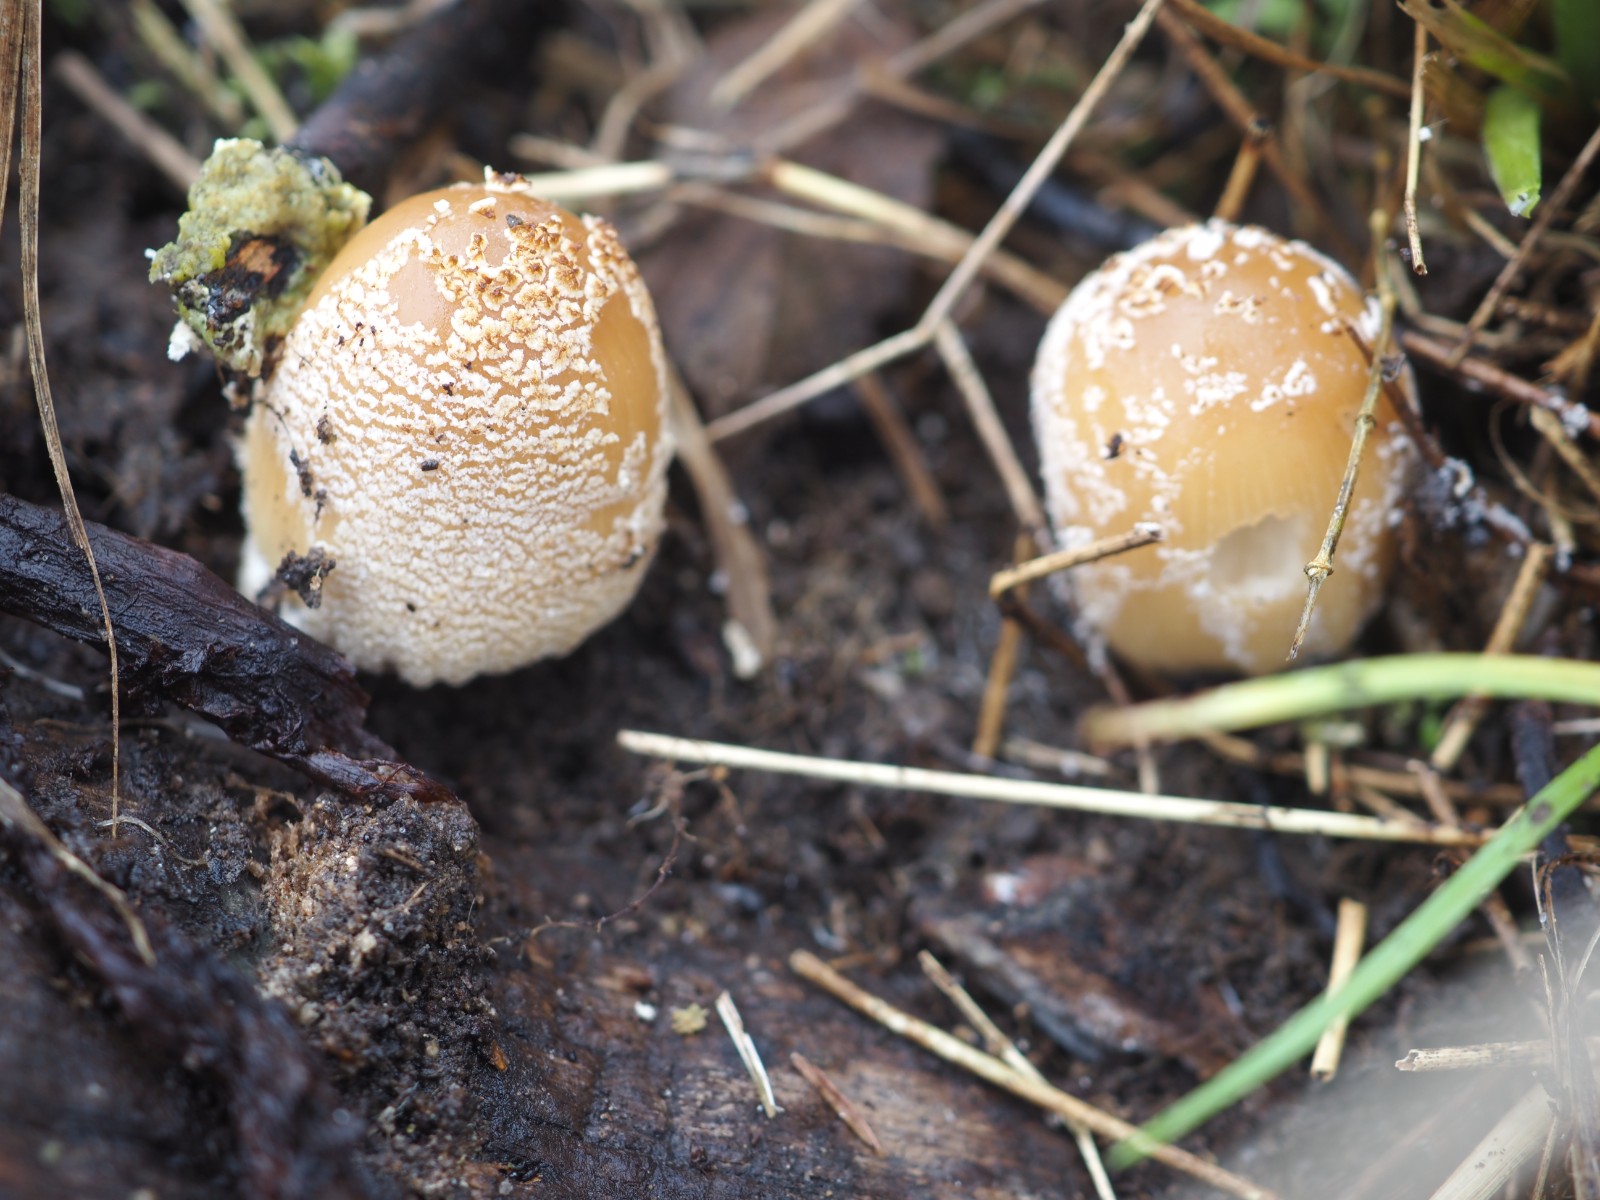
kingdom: Fungi
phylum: Basidiomycota
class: Agaricomycetes
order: Agaricales
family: Psathyrellaceae
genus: Coprinellus
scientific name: Coprinellus domesticus
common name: hus-blækhat
